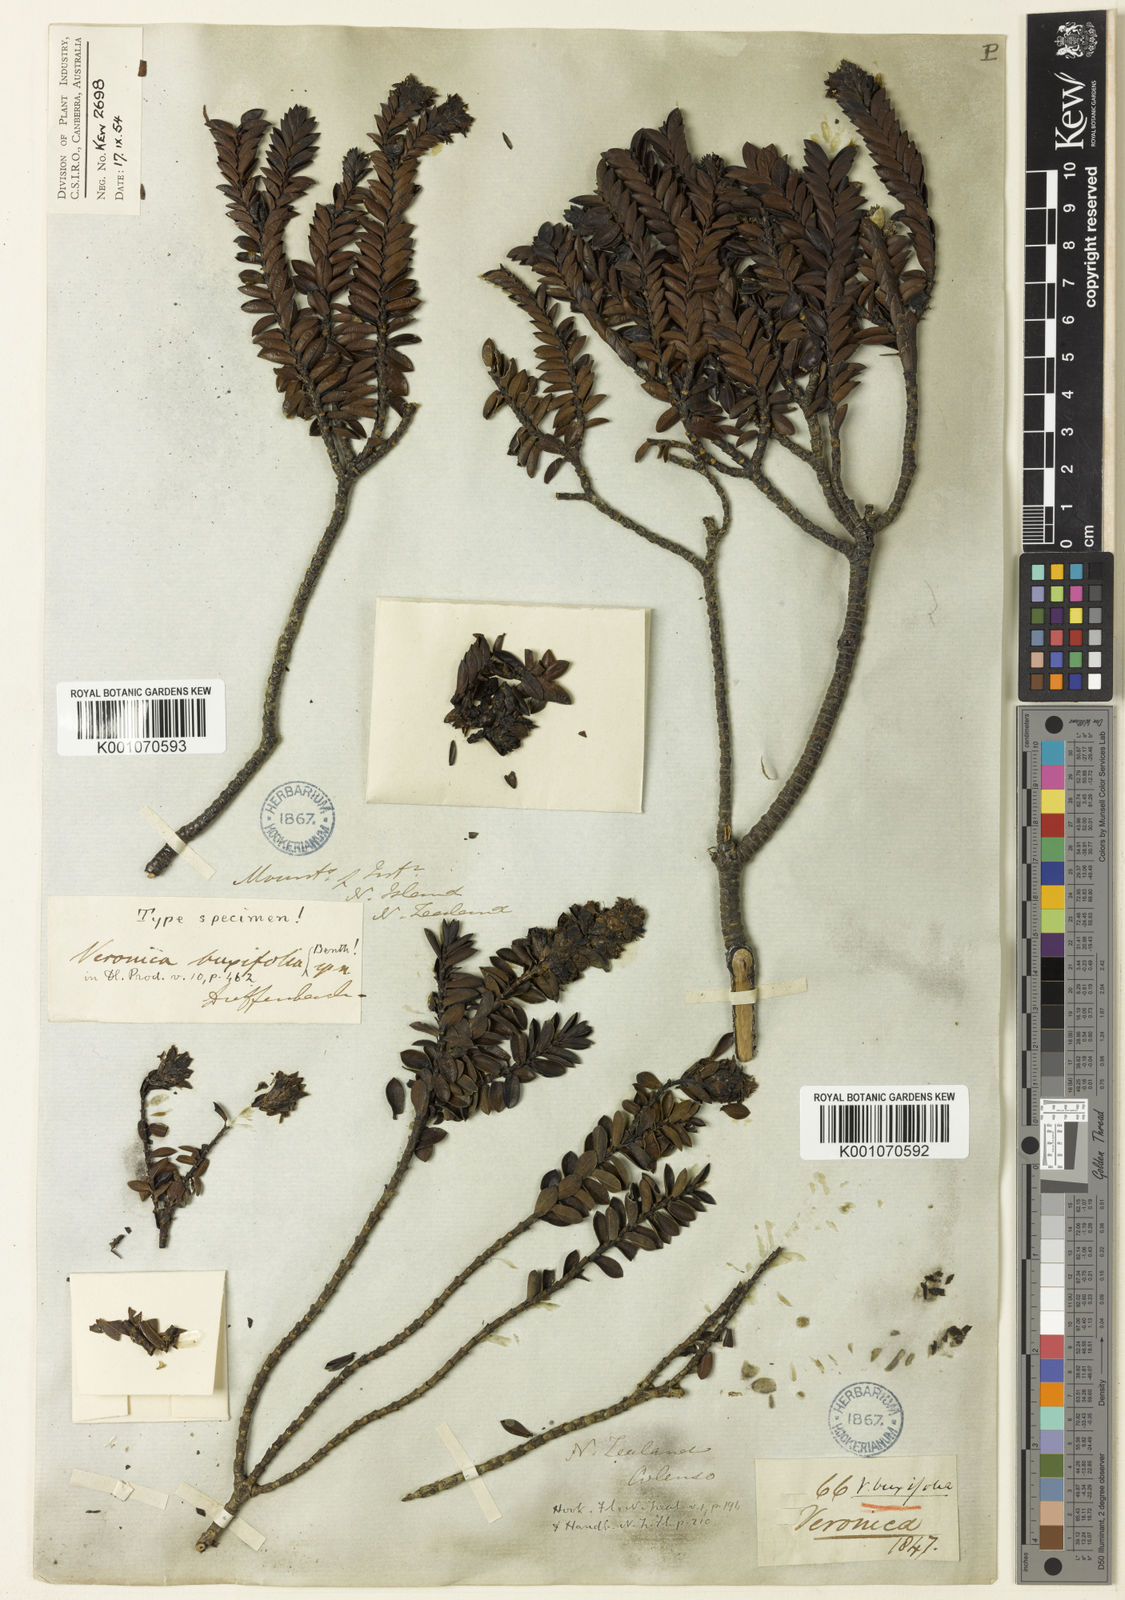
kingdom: Plantae
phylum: Tracheophyta
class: Magnoliopsida
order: Lamiales
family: Plantaginaceae
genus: Veronica
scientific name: Veronica odora
